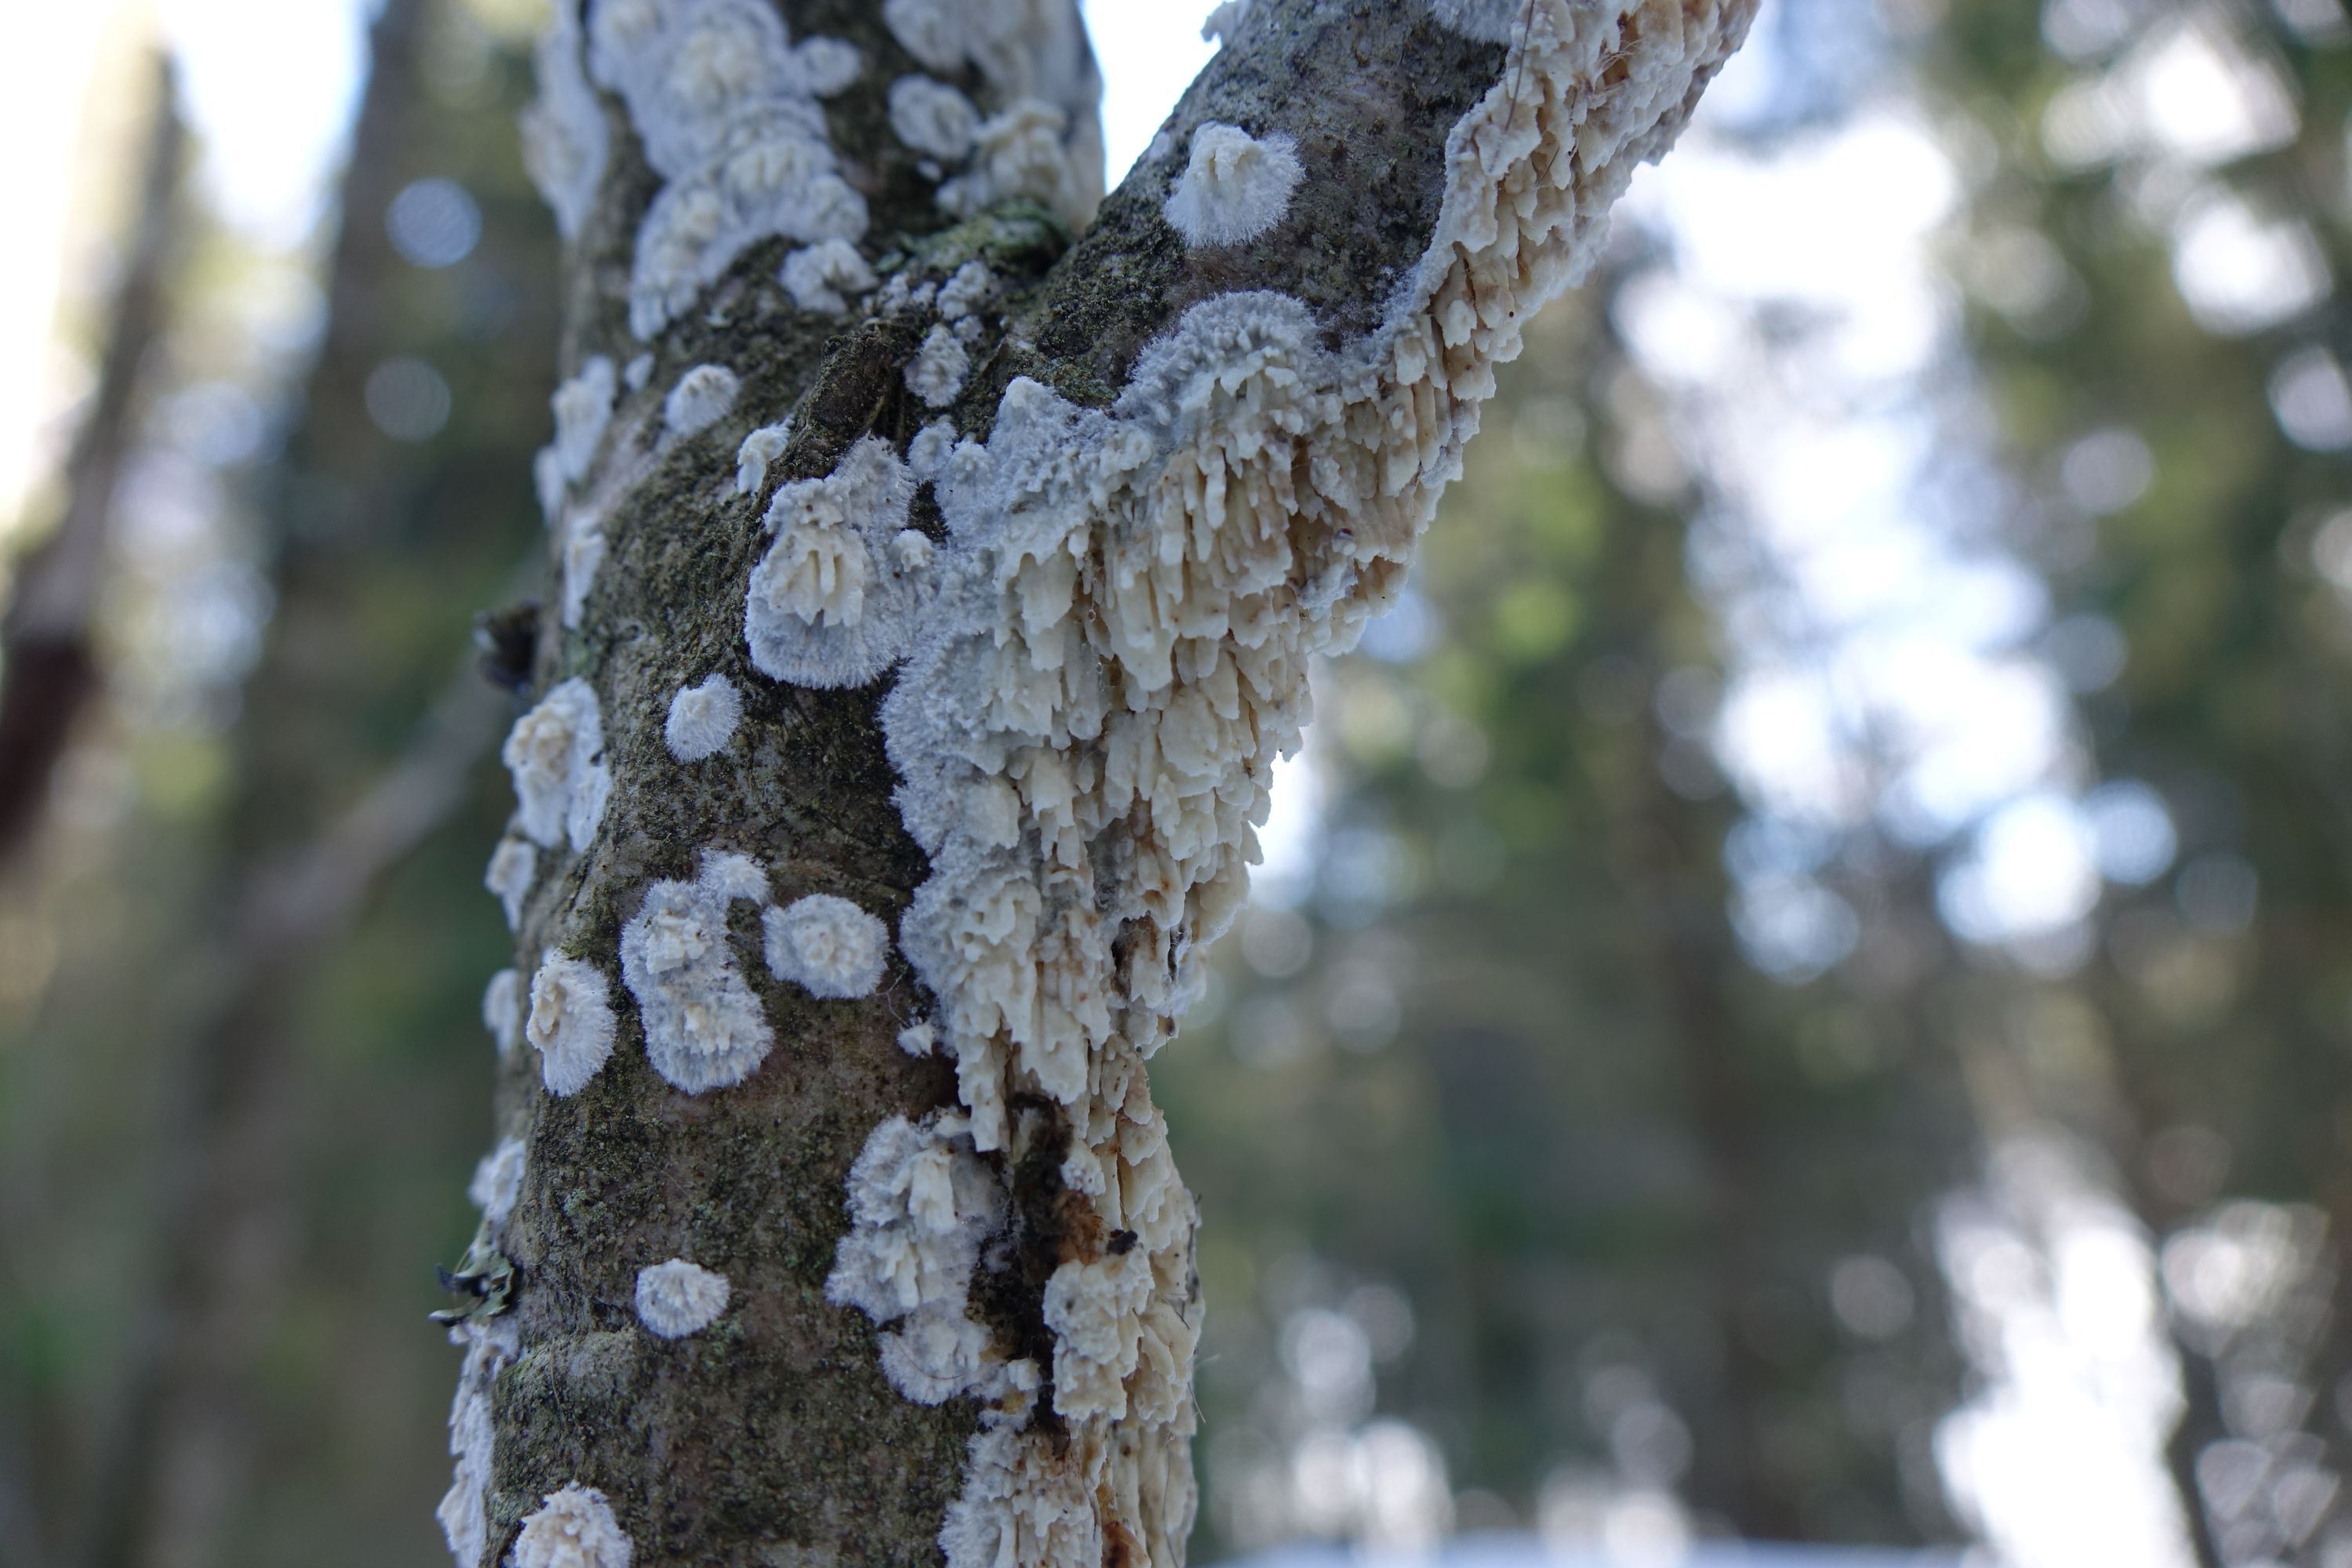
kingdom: Fungi
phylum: Basidiomycota
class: Agaricomycetes
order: Hymenochaetales
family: Schizoporaceae
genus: Xylodon
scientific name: Xylodon radula
